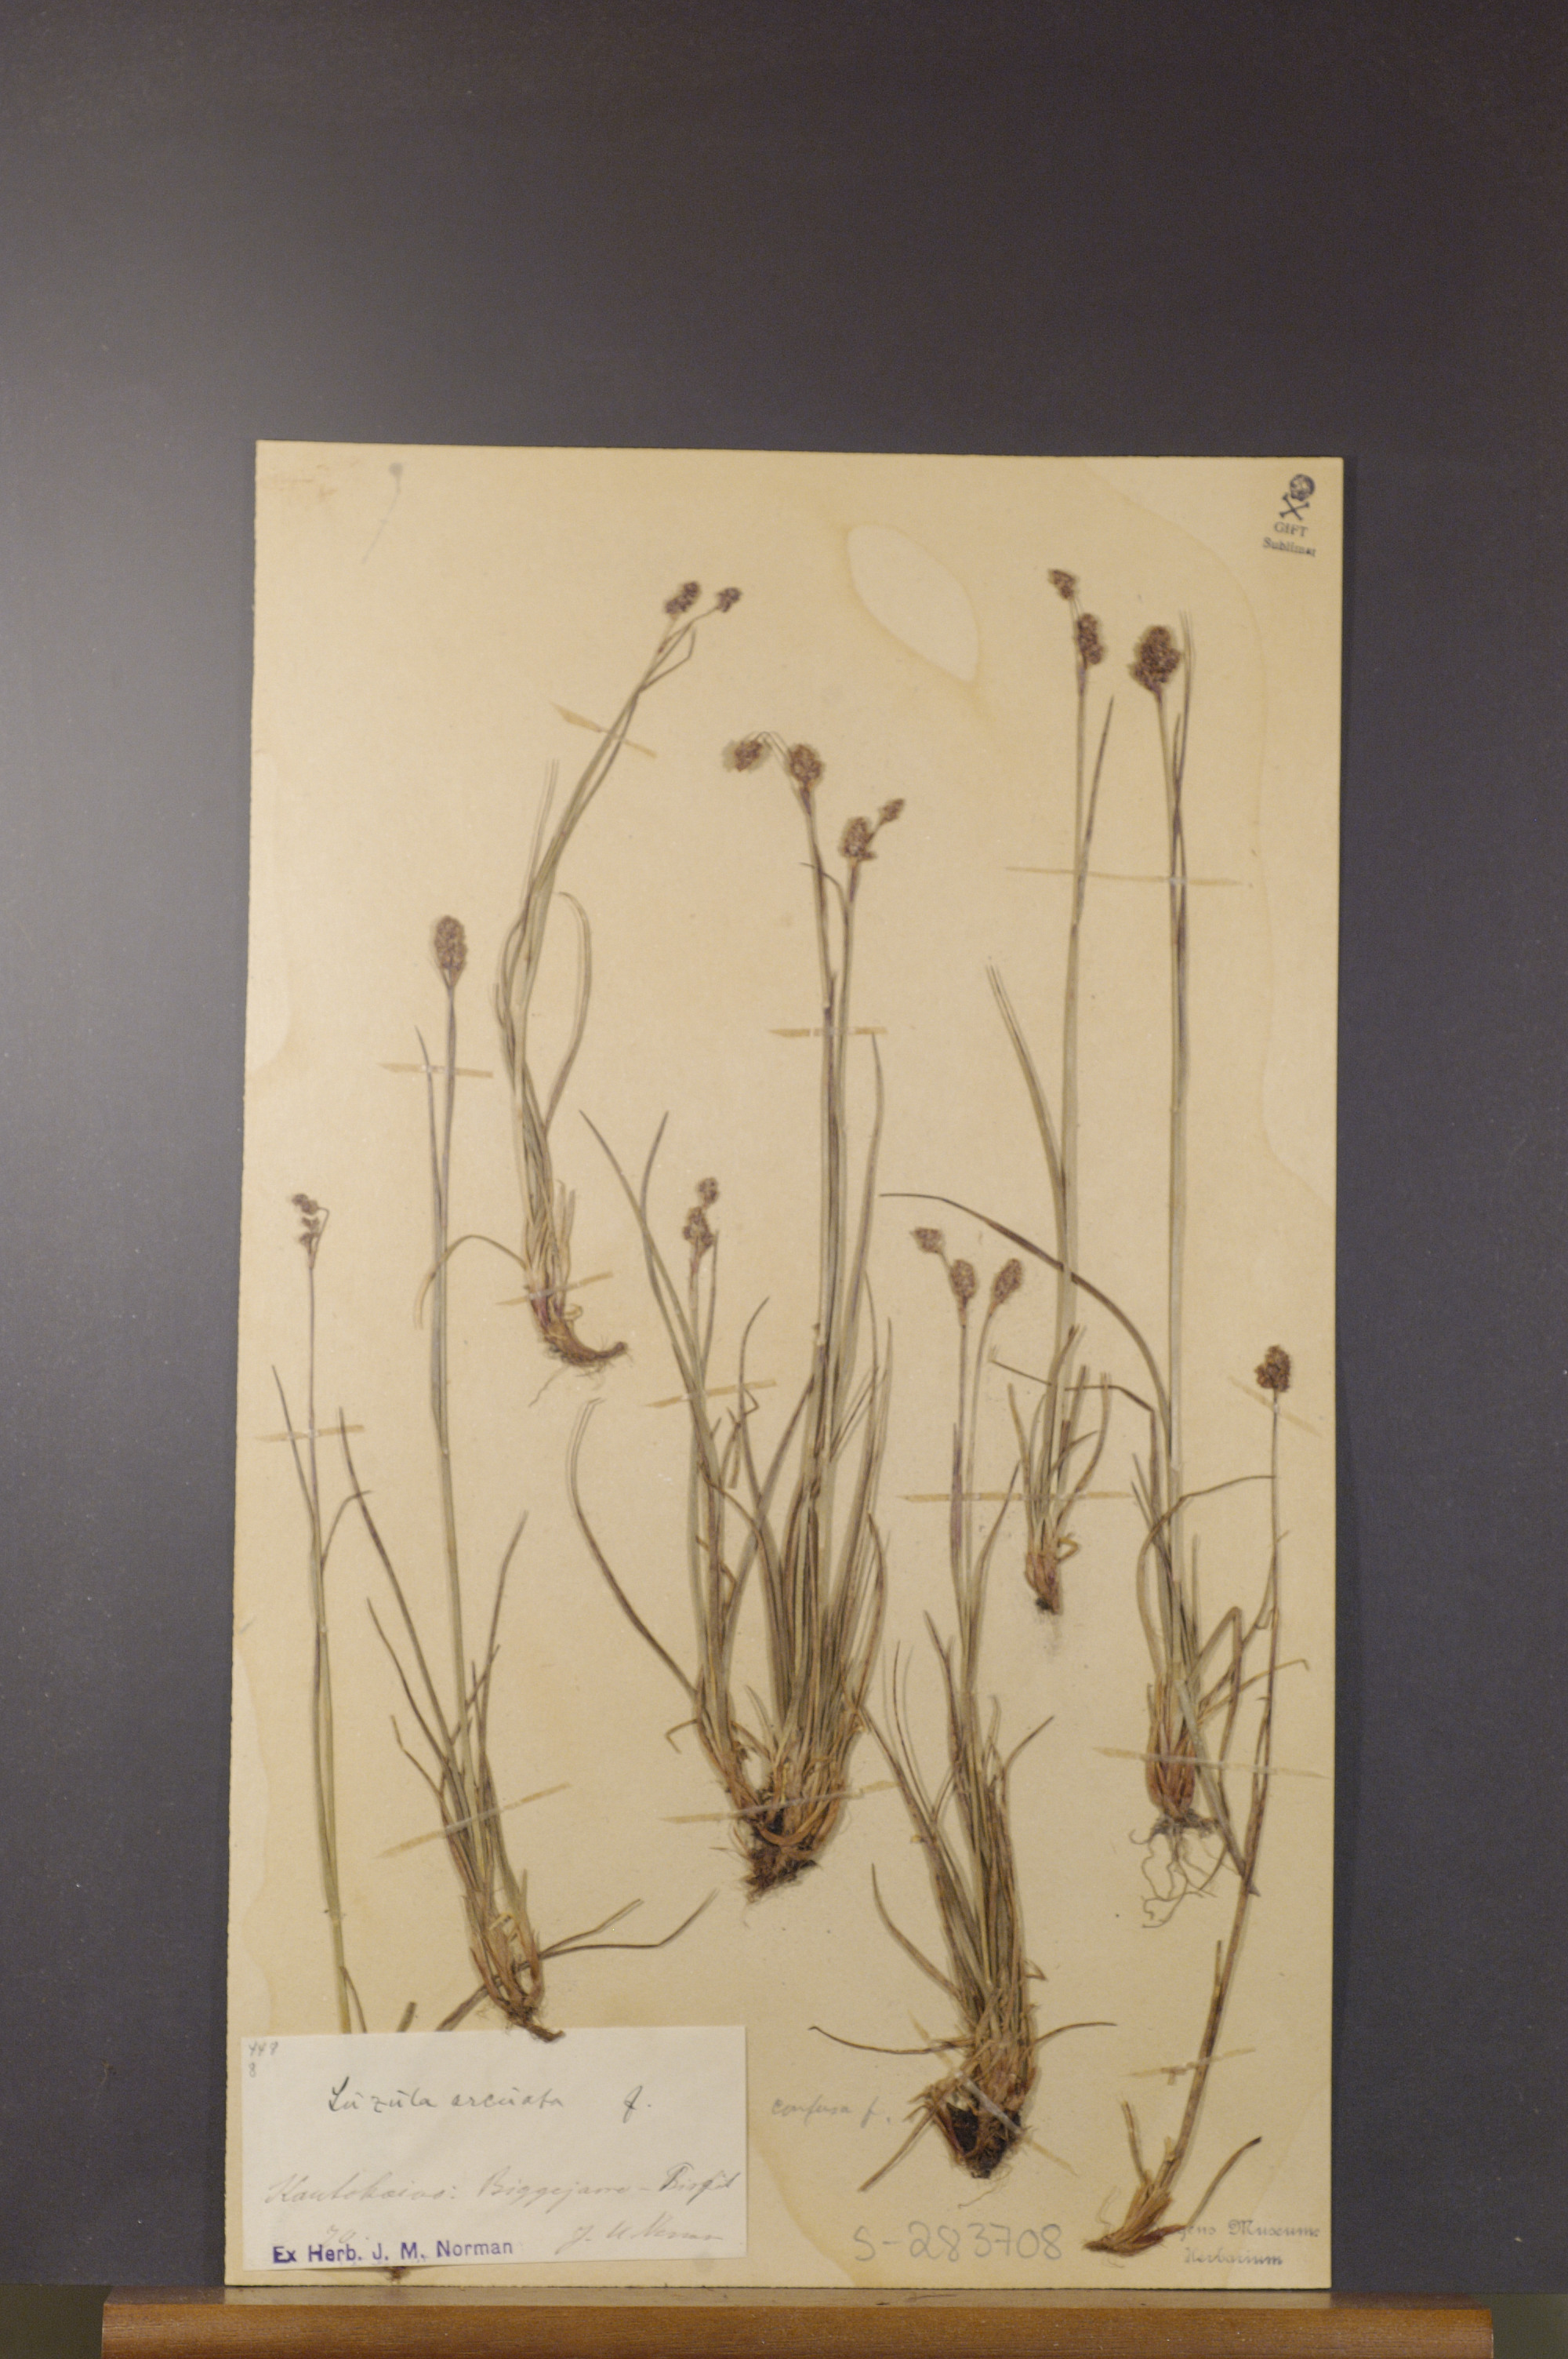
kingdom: Plantae
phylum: Tracheophyta
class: Liliopsida
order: Poales
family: Juncaceae
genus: Luzula
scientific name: Luzula arcuata
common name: Curved wood-rush
